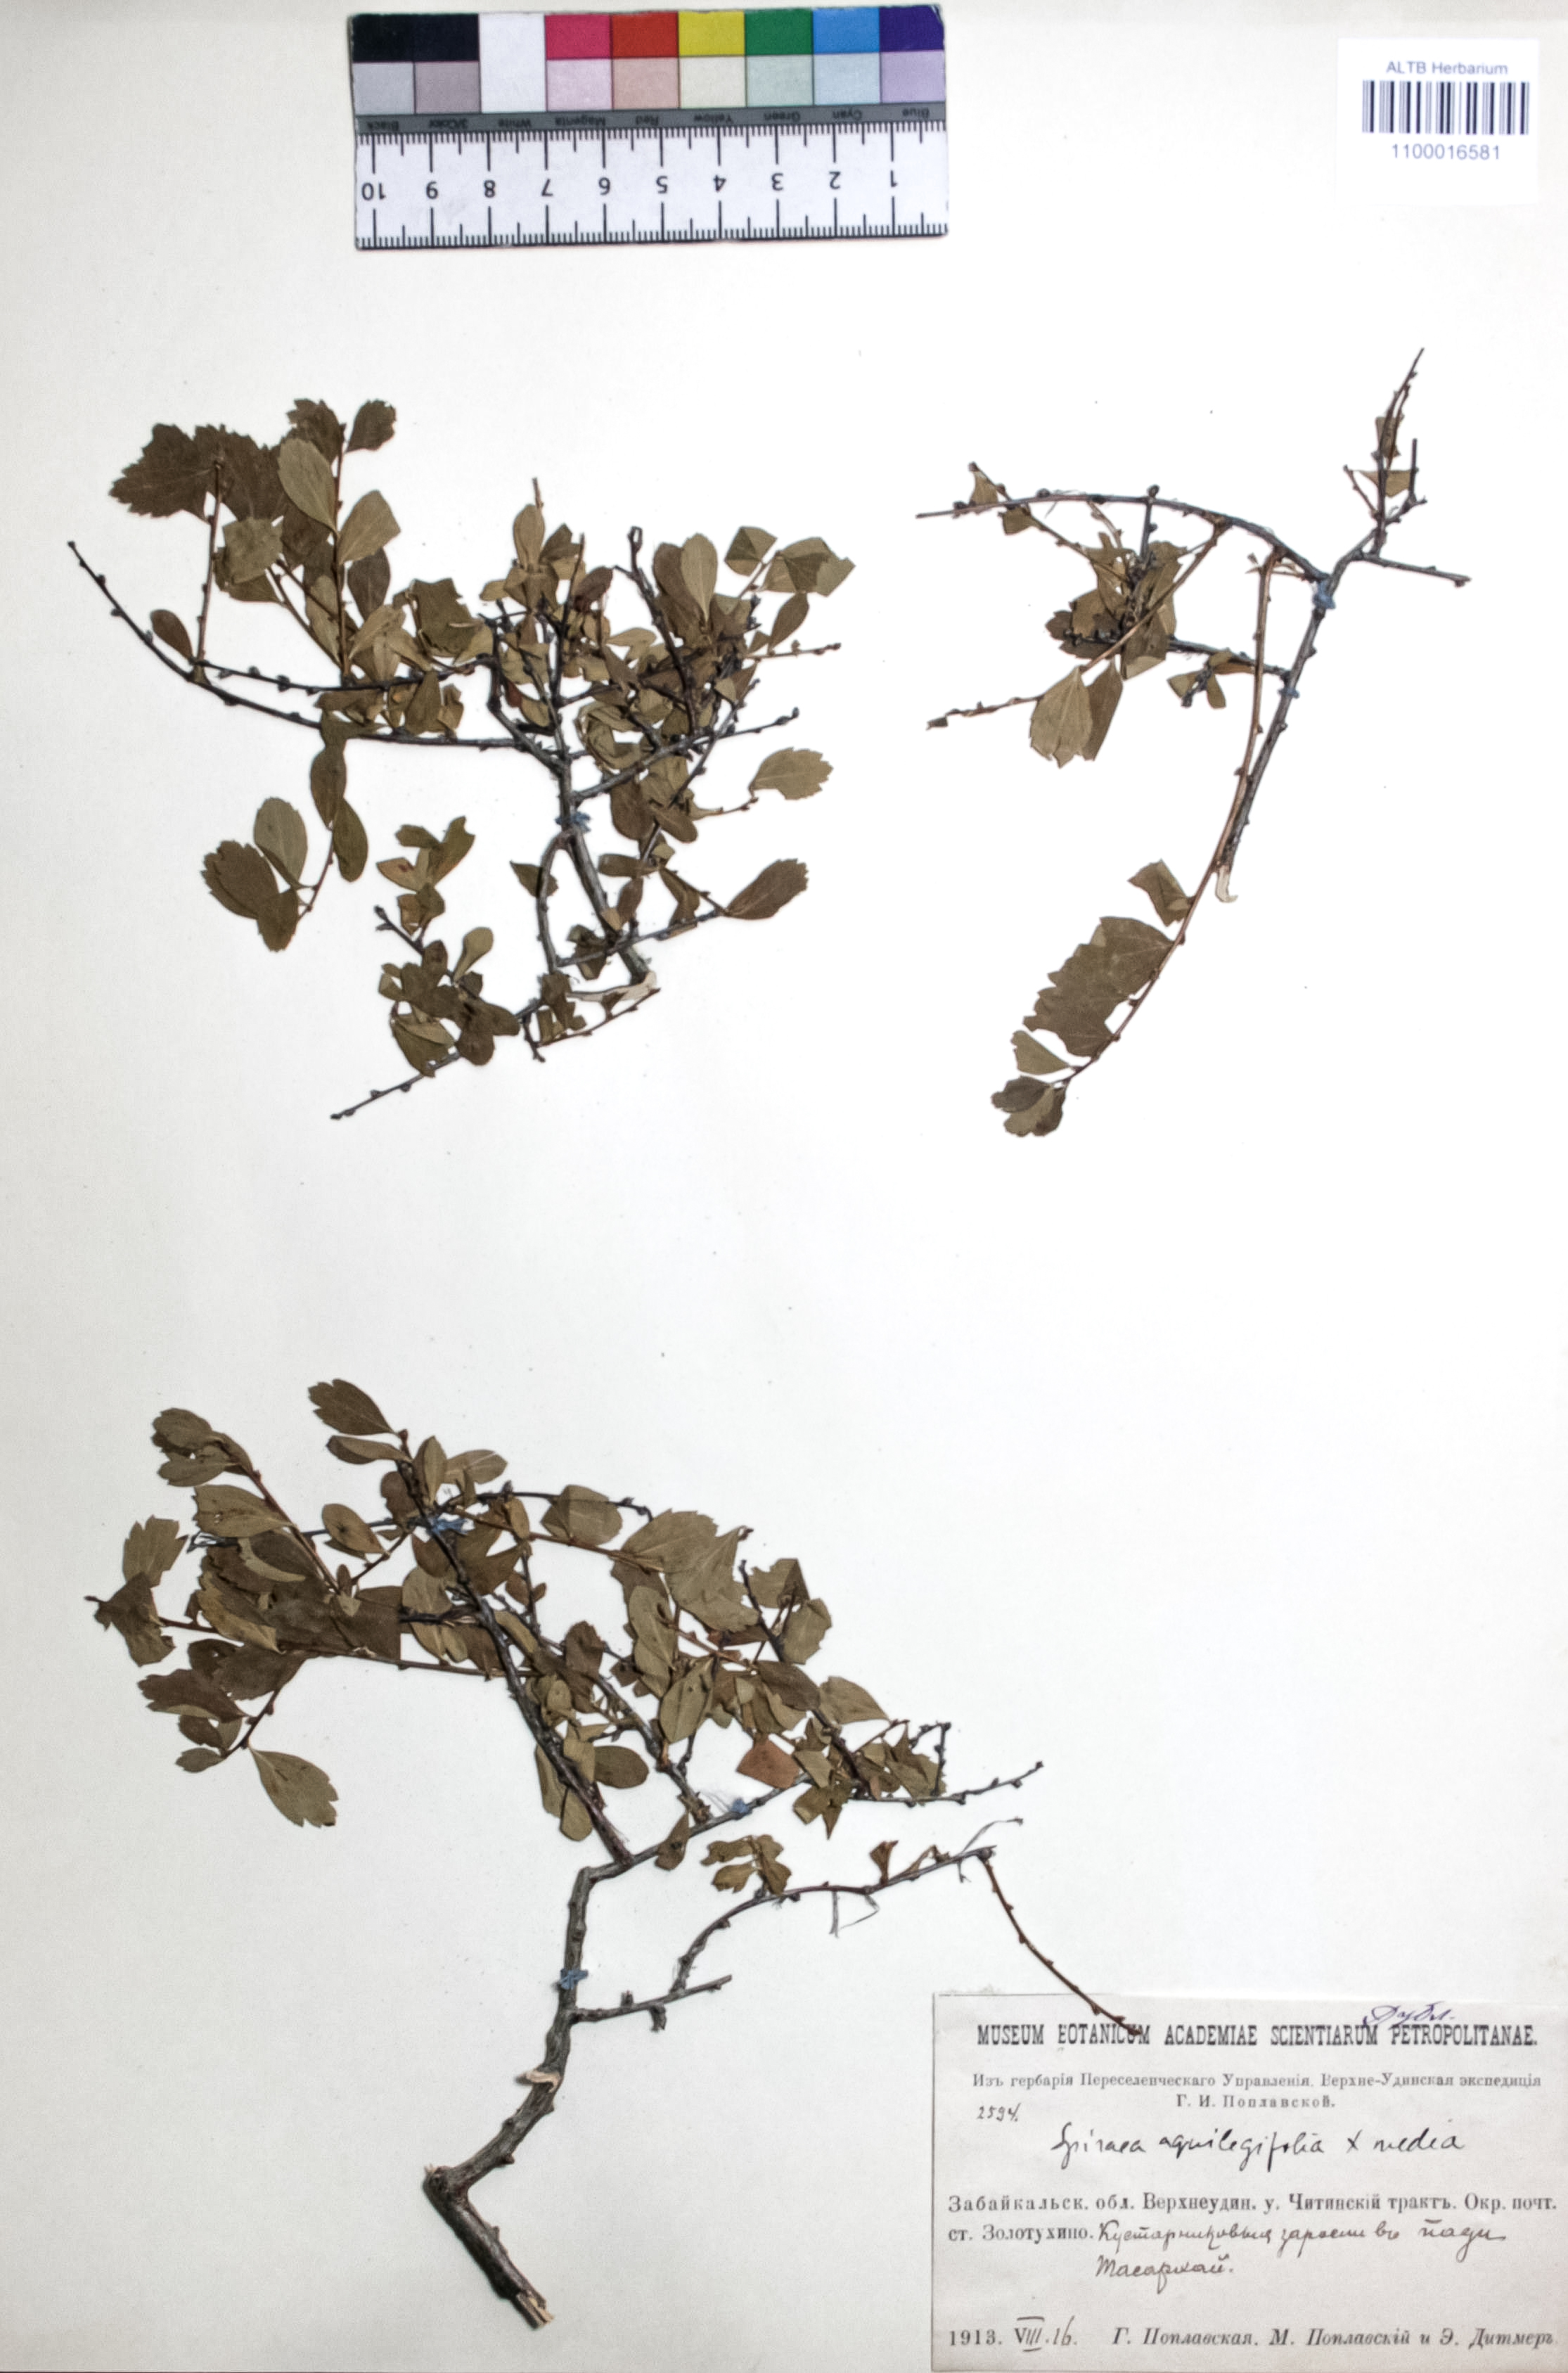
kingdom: Plantae
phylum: Tracheophyta
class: Magnoliopsida
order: Rosales
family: Rosaceae
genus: Spiraea
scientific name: Spiraea aquilegifolia
